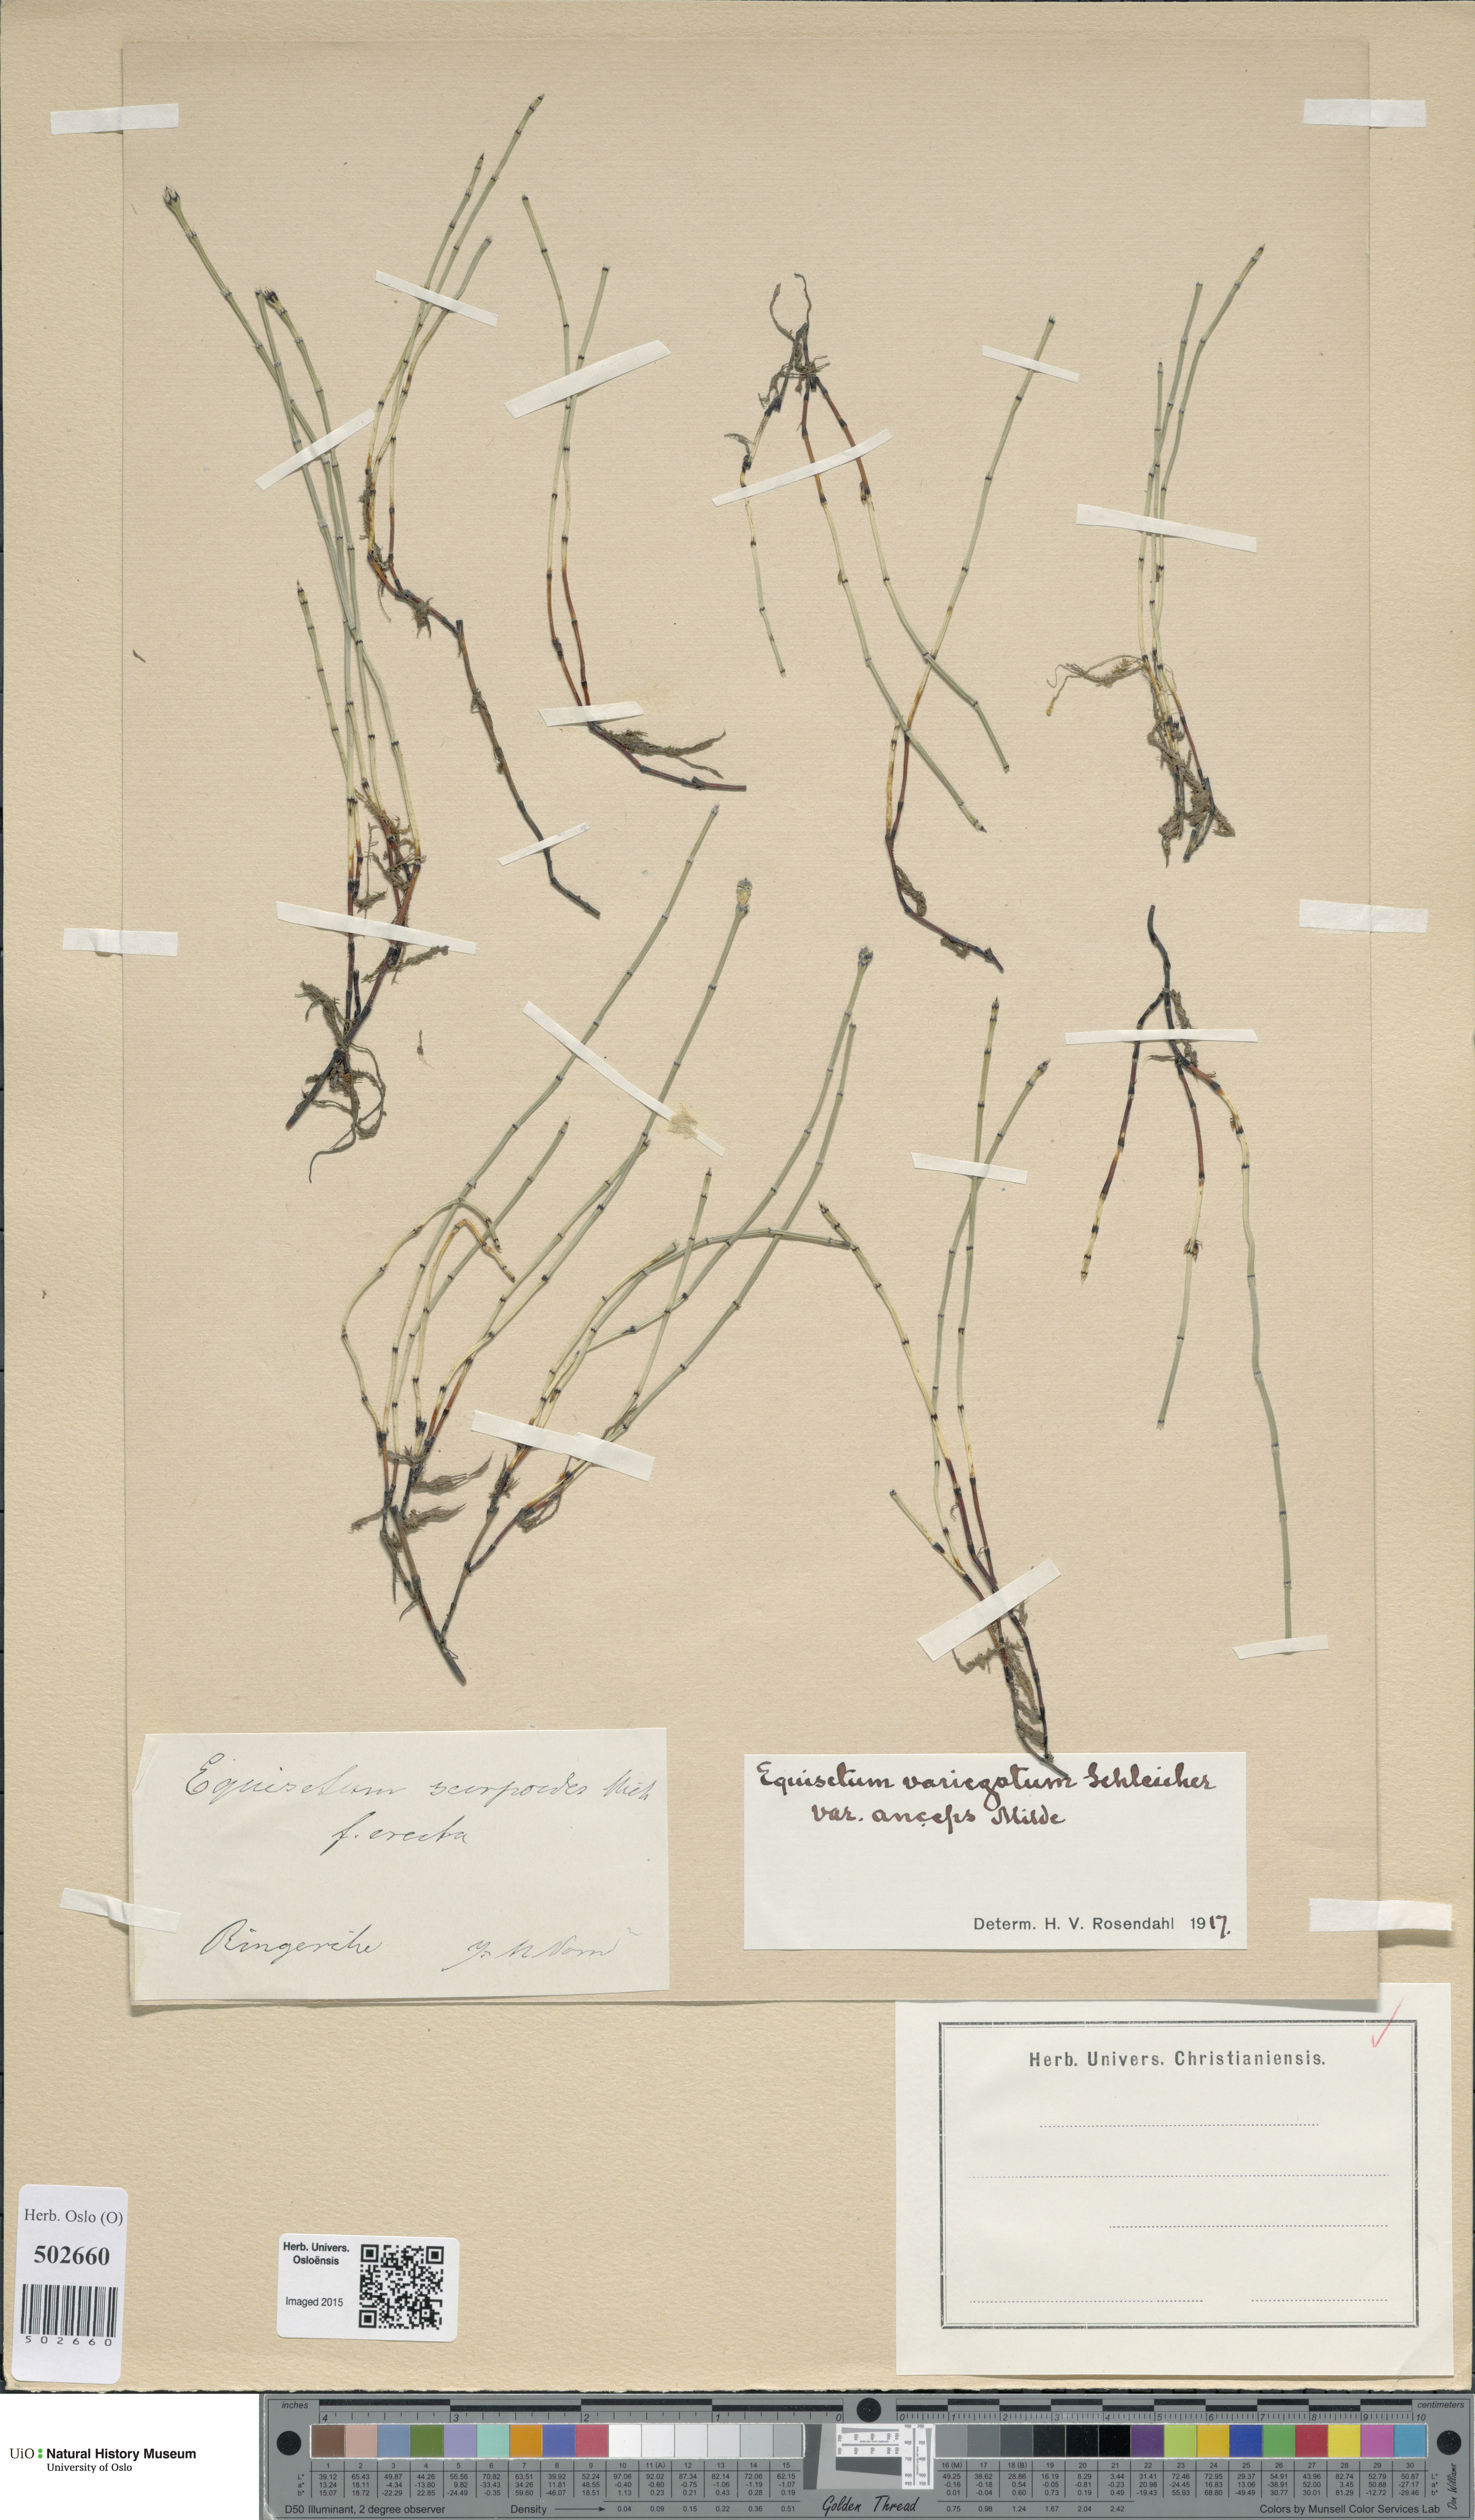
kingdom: Plantae
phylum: Tracheophyta
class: Polypodiopsida
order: Equisetales
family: Equisetaceae
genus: Equisetum
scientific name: Equisetum scirpoides
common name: Delicate horsetail
